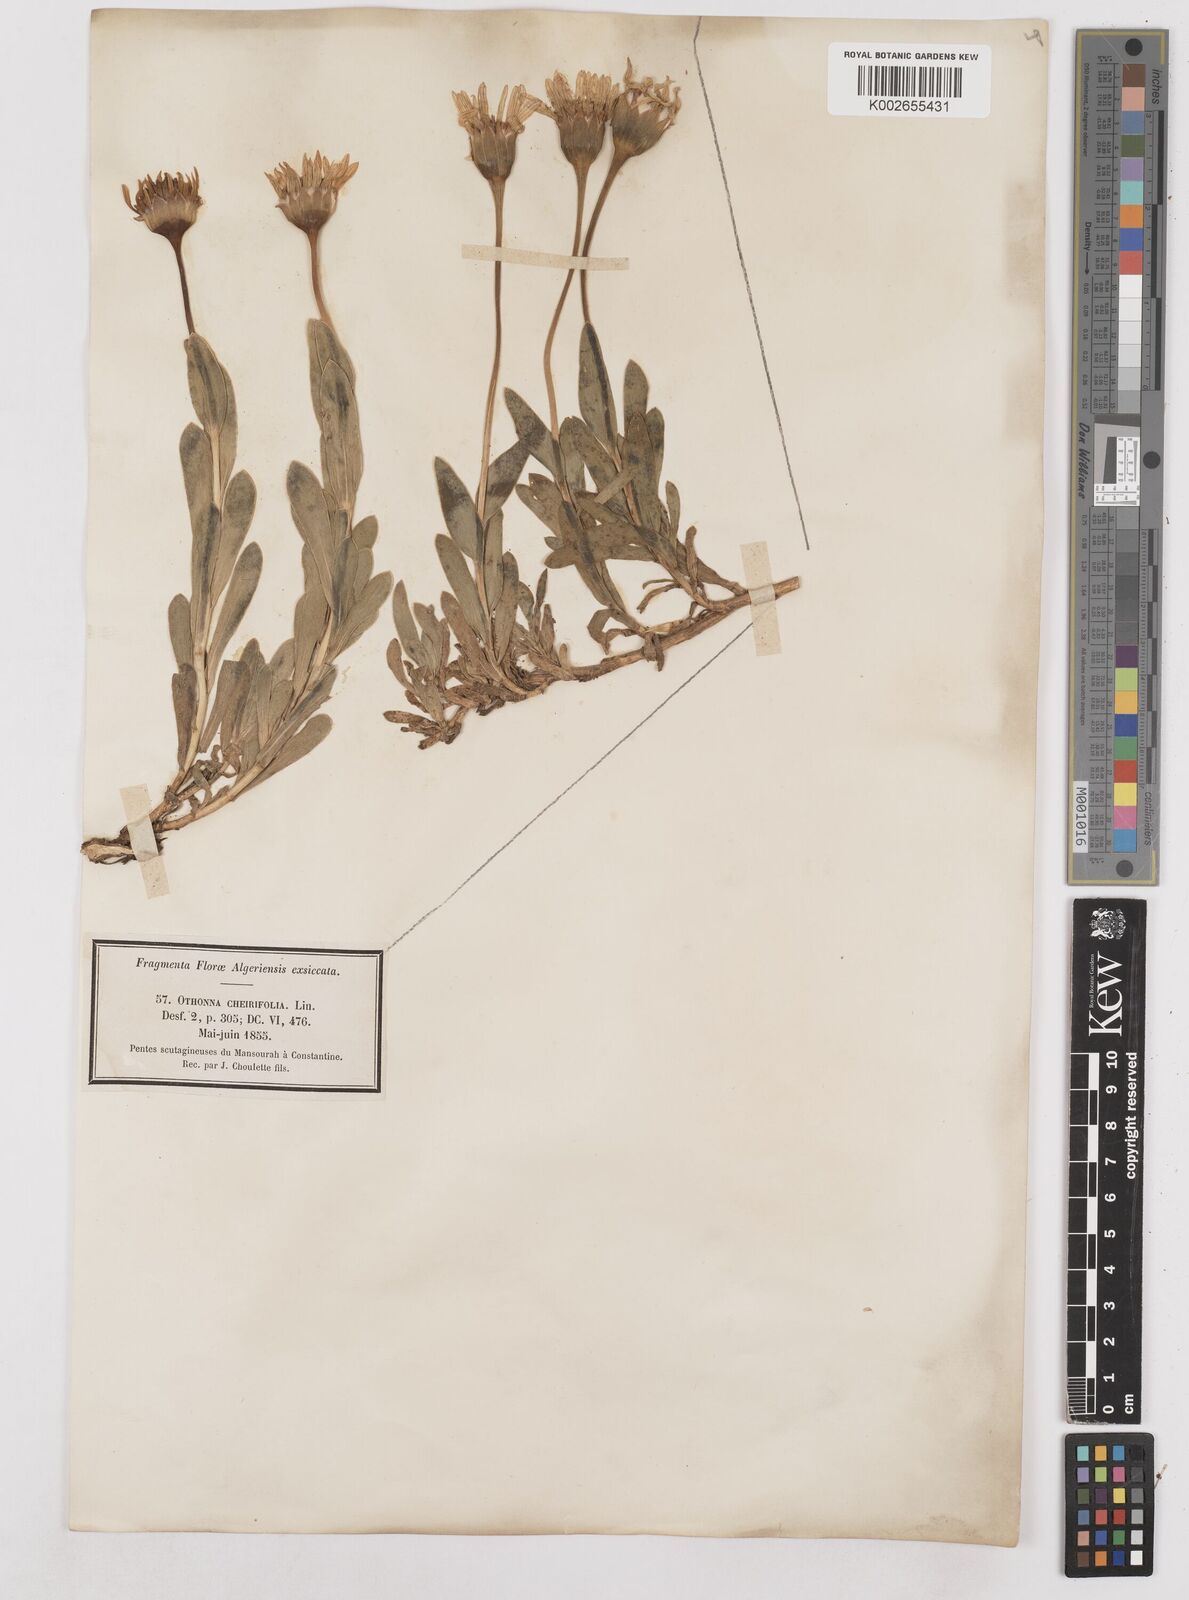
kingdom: Plantae
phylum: Tracheophyta
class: Magnoliopsida
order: Asterales
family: Asteraceae
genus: Hertia
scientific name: Hertia cheirifolia
